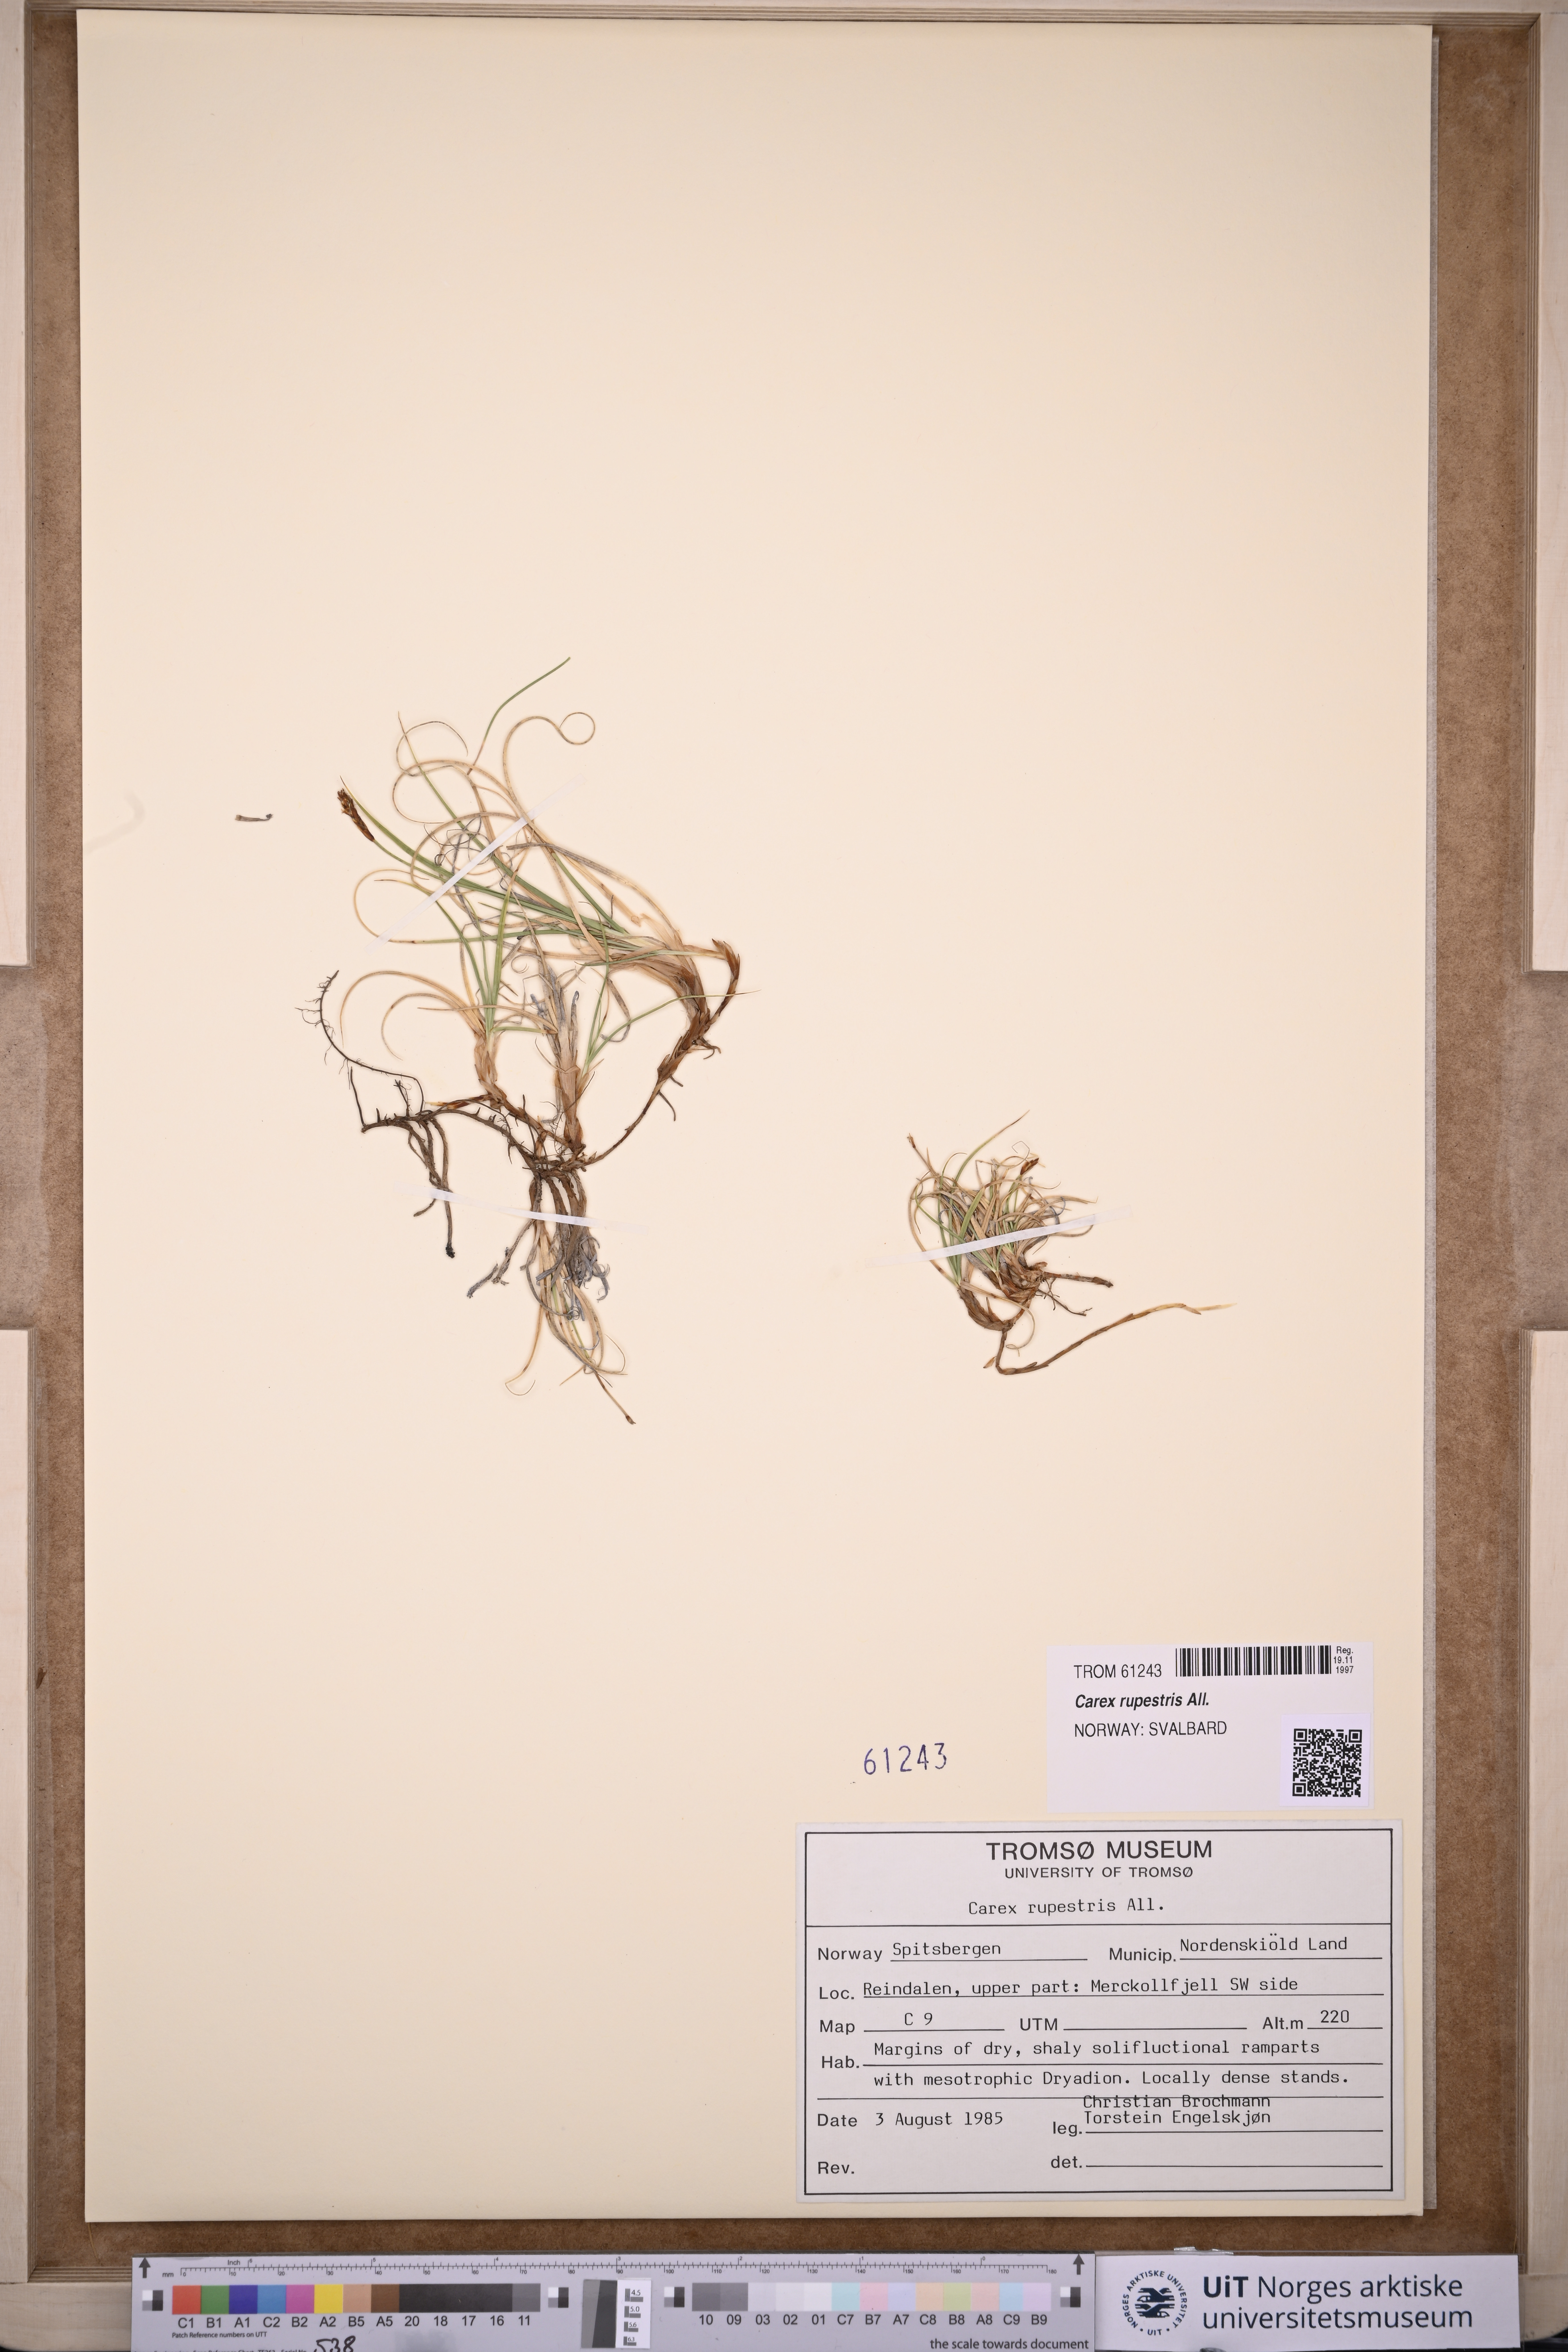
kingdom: Plantae
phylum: Tracheophyta
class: Liliopsida
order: Poales
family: Cyperaceae
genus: Carex
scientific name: Carex rupestris
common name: Rock sedge
